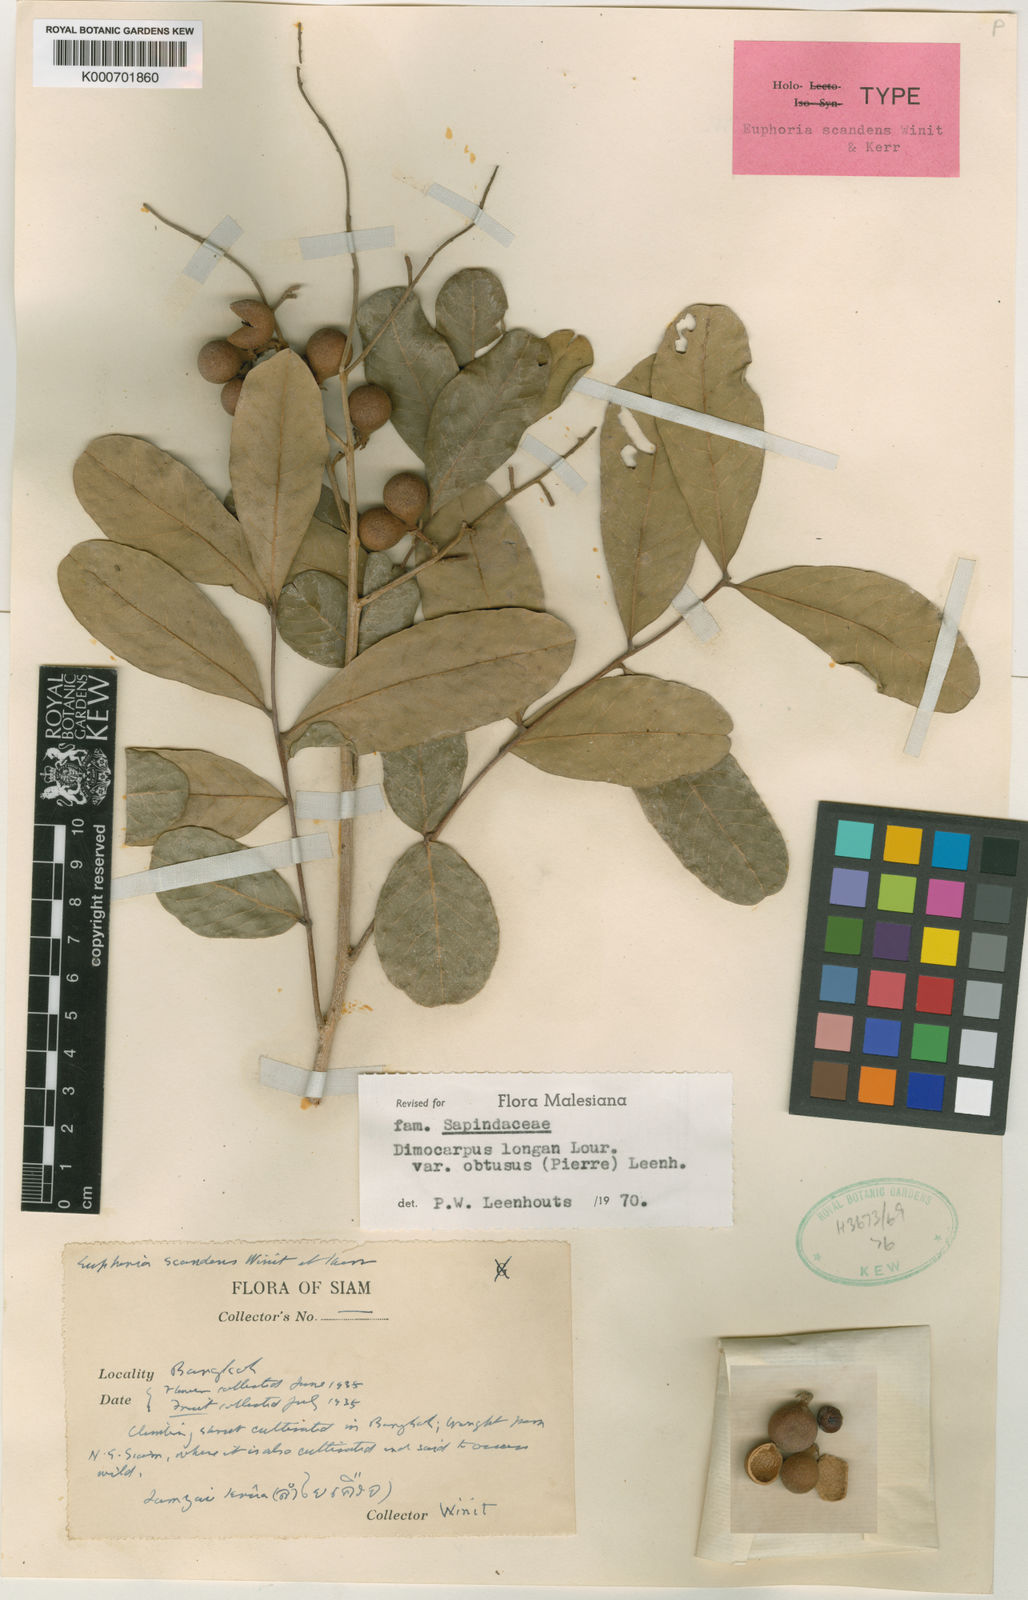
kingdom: Plantae
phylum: Tracheophyta
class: Magnoliopsida
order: Sapindales
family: Sapindaceae
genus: Dimocarpus
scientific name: Dimocarpus obtusus
